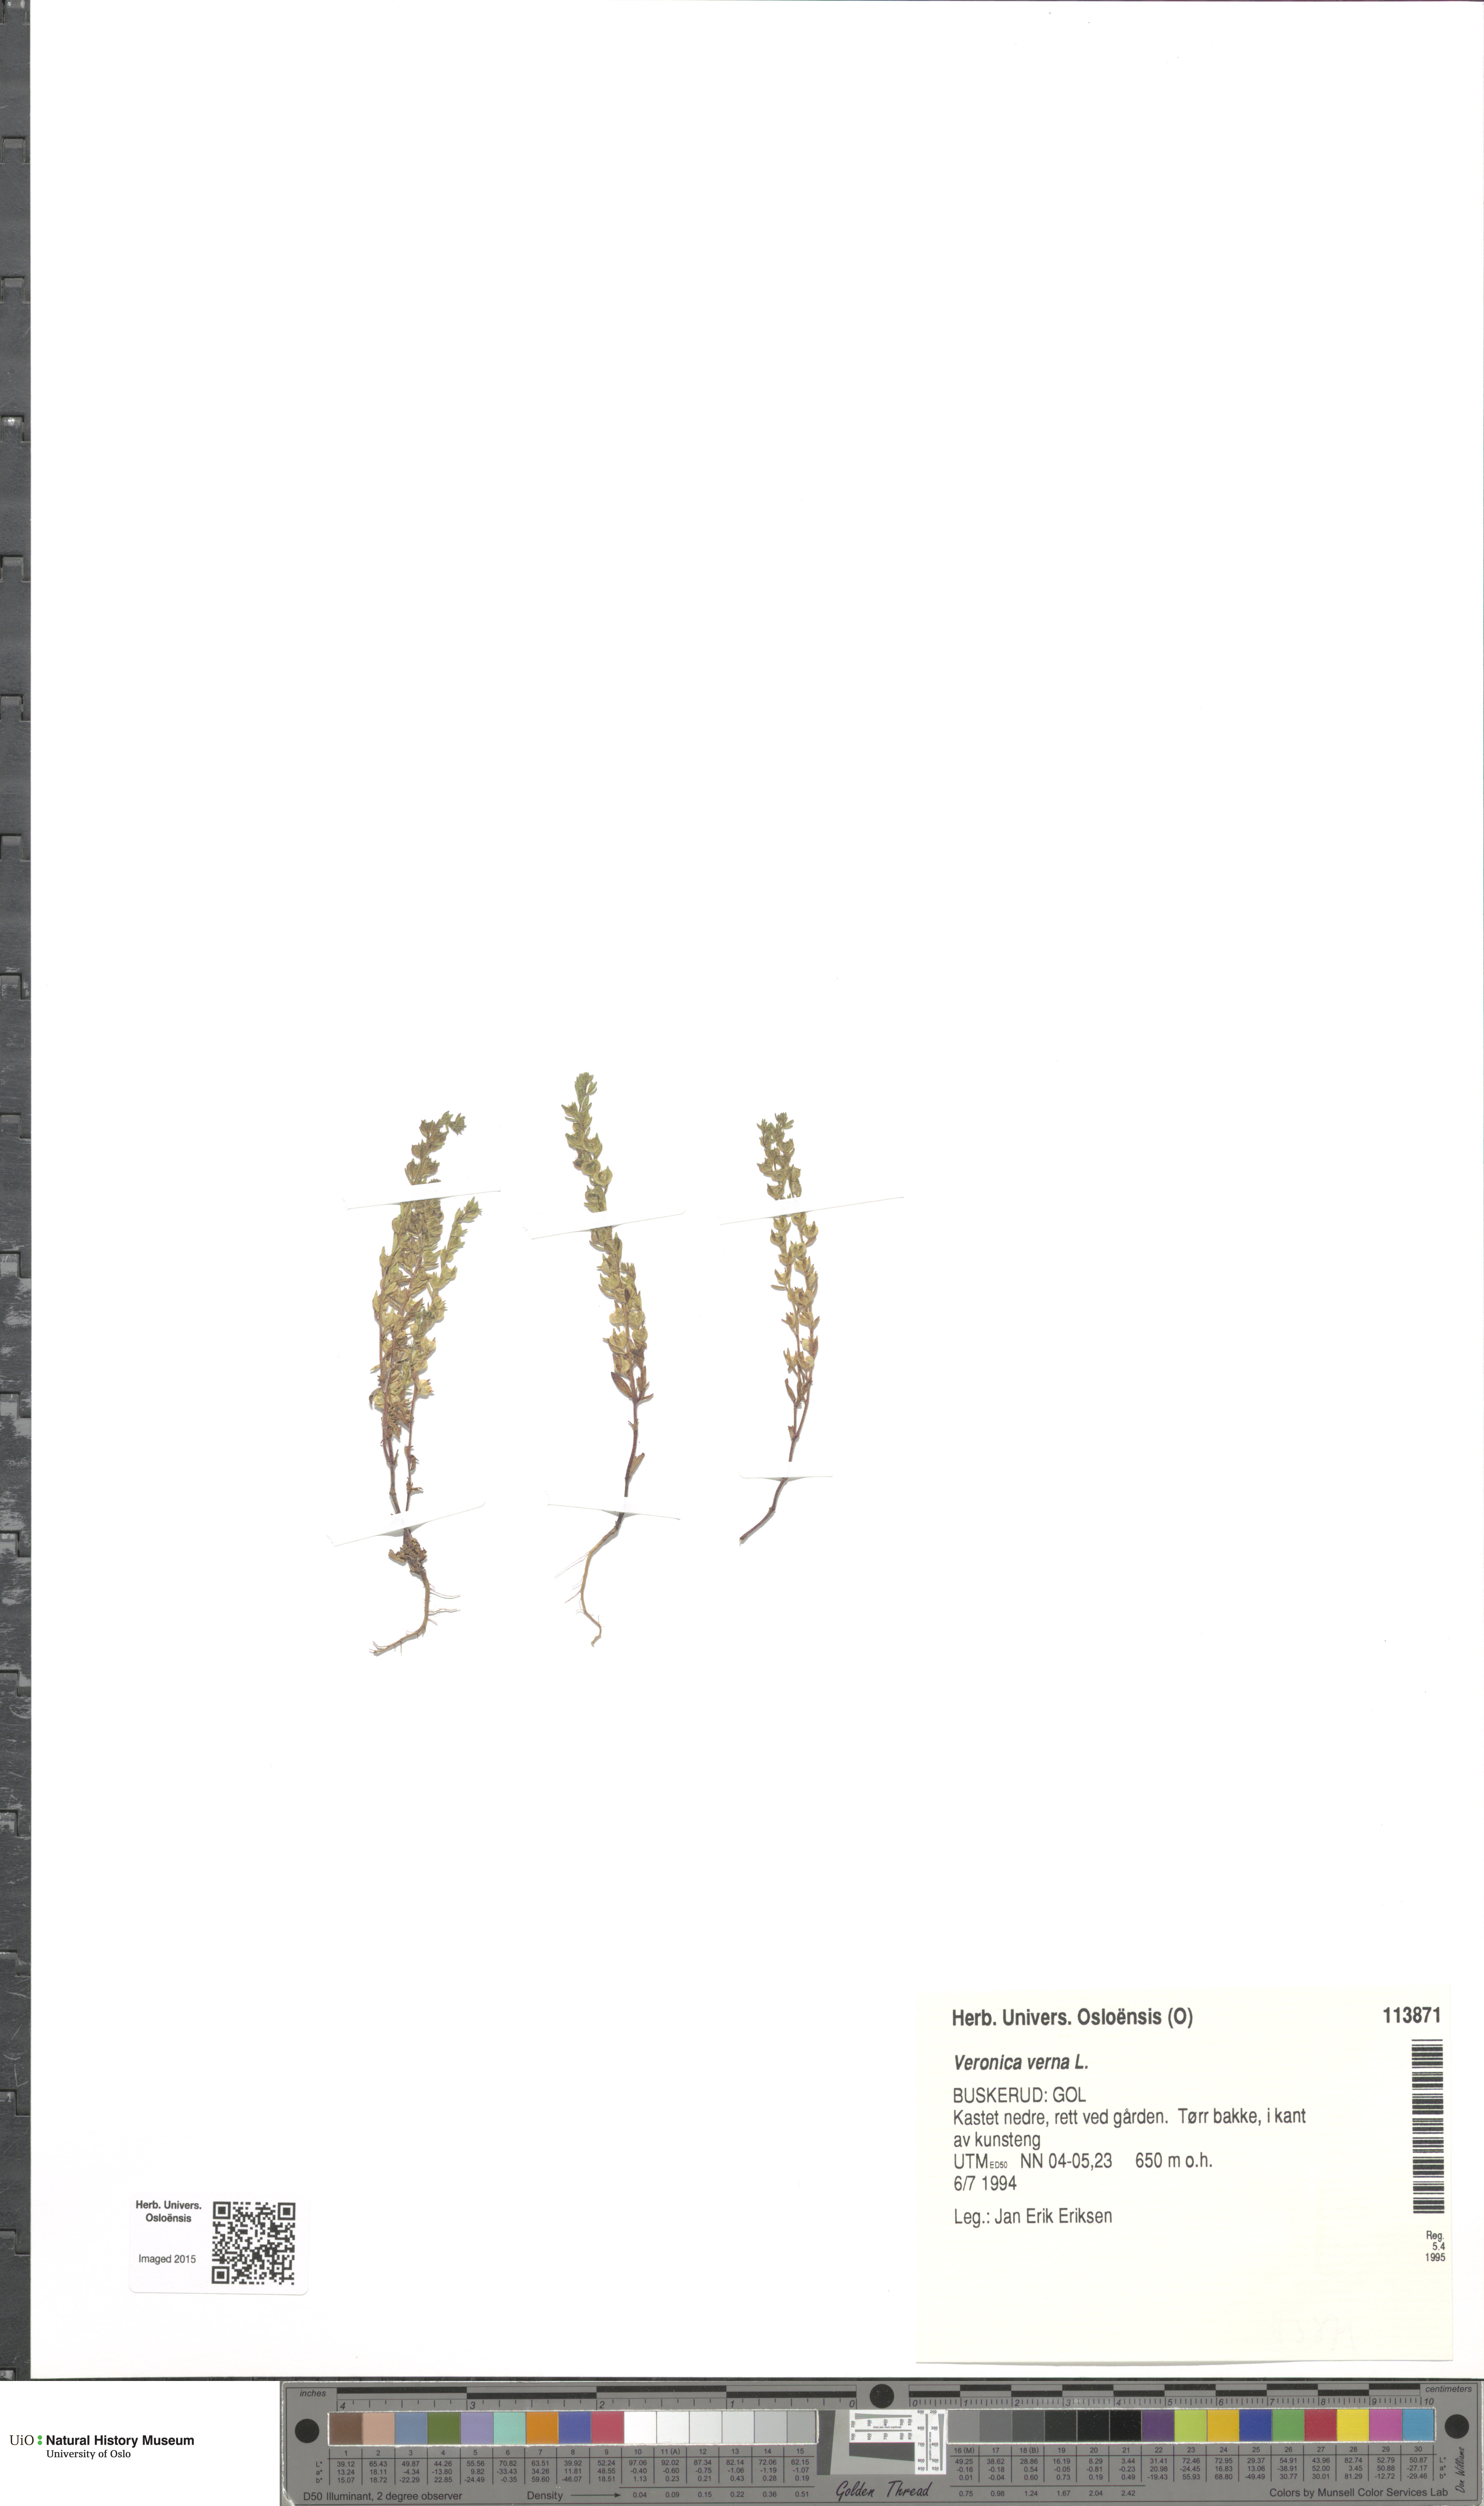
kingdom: Plantae
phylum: Tracheophyta
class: Magnoliopsida
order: Lamiales
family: Plantaginaceae
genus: Veronica
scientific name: Veronica verna
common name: Spring speedwell
